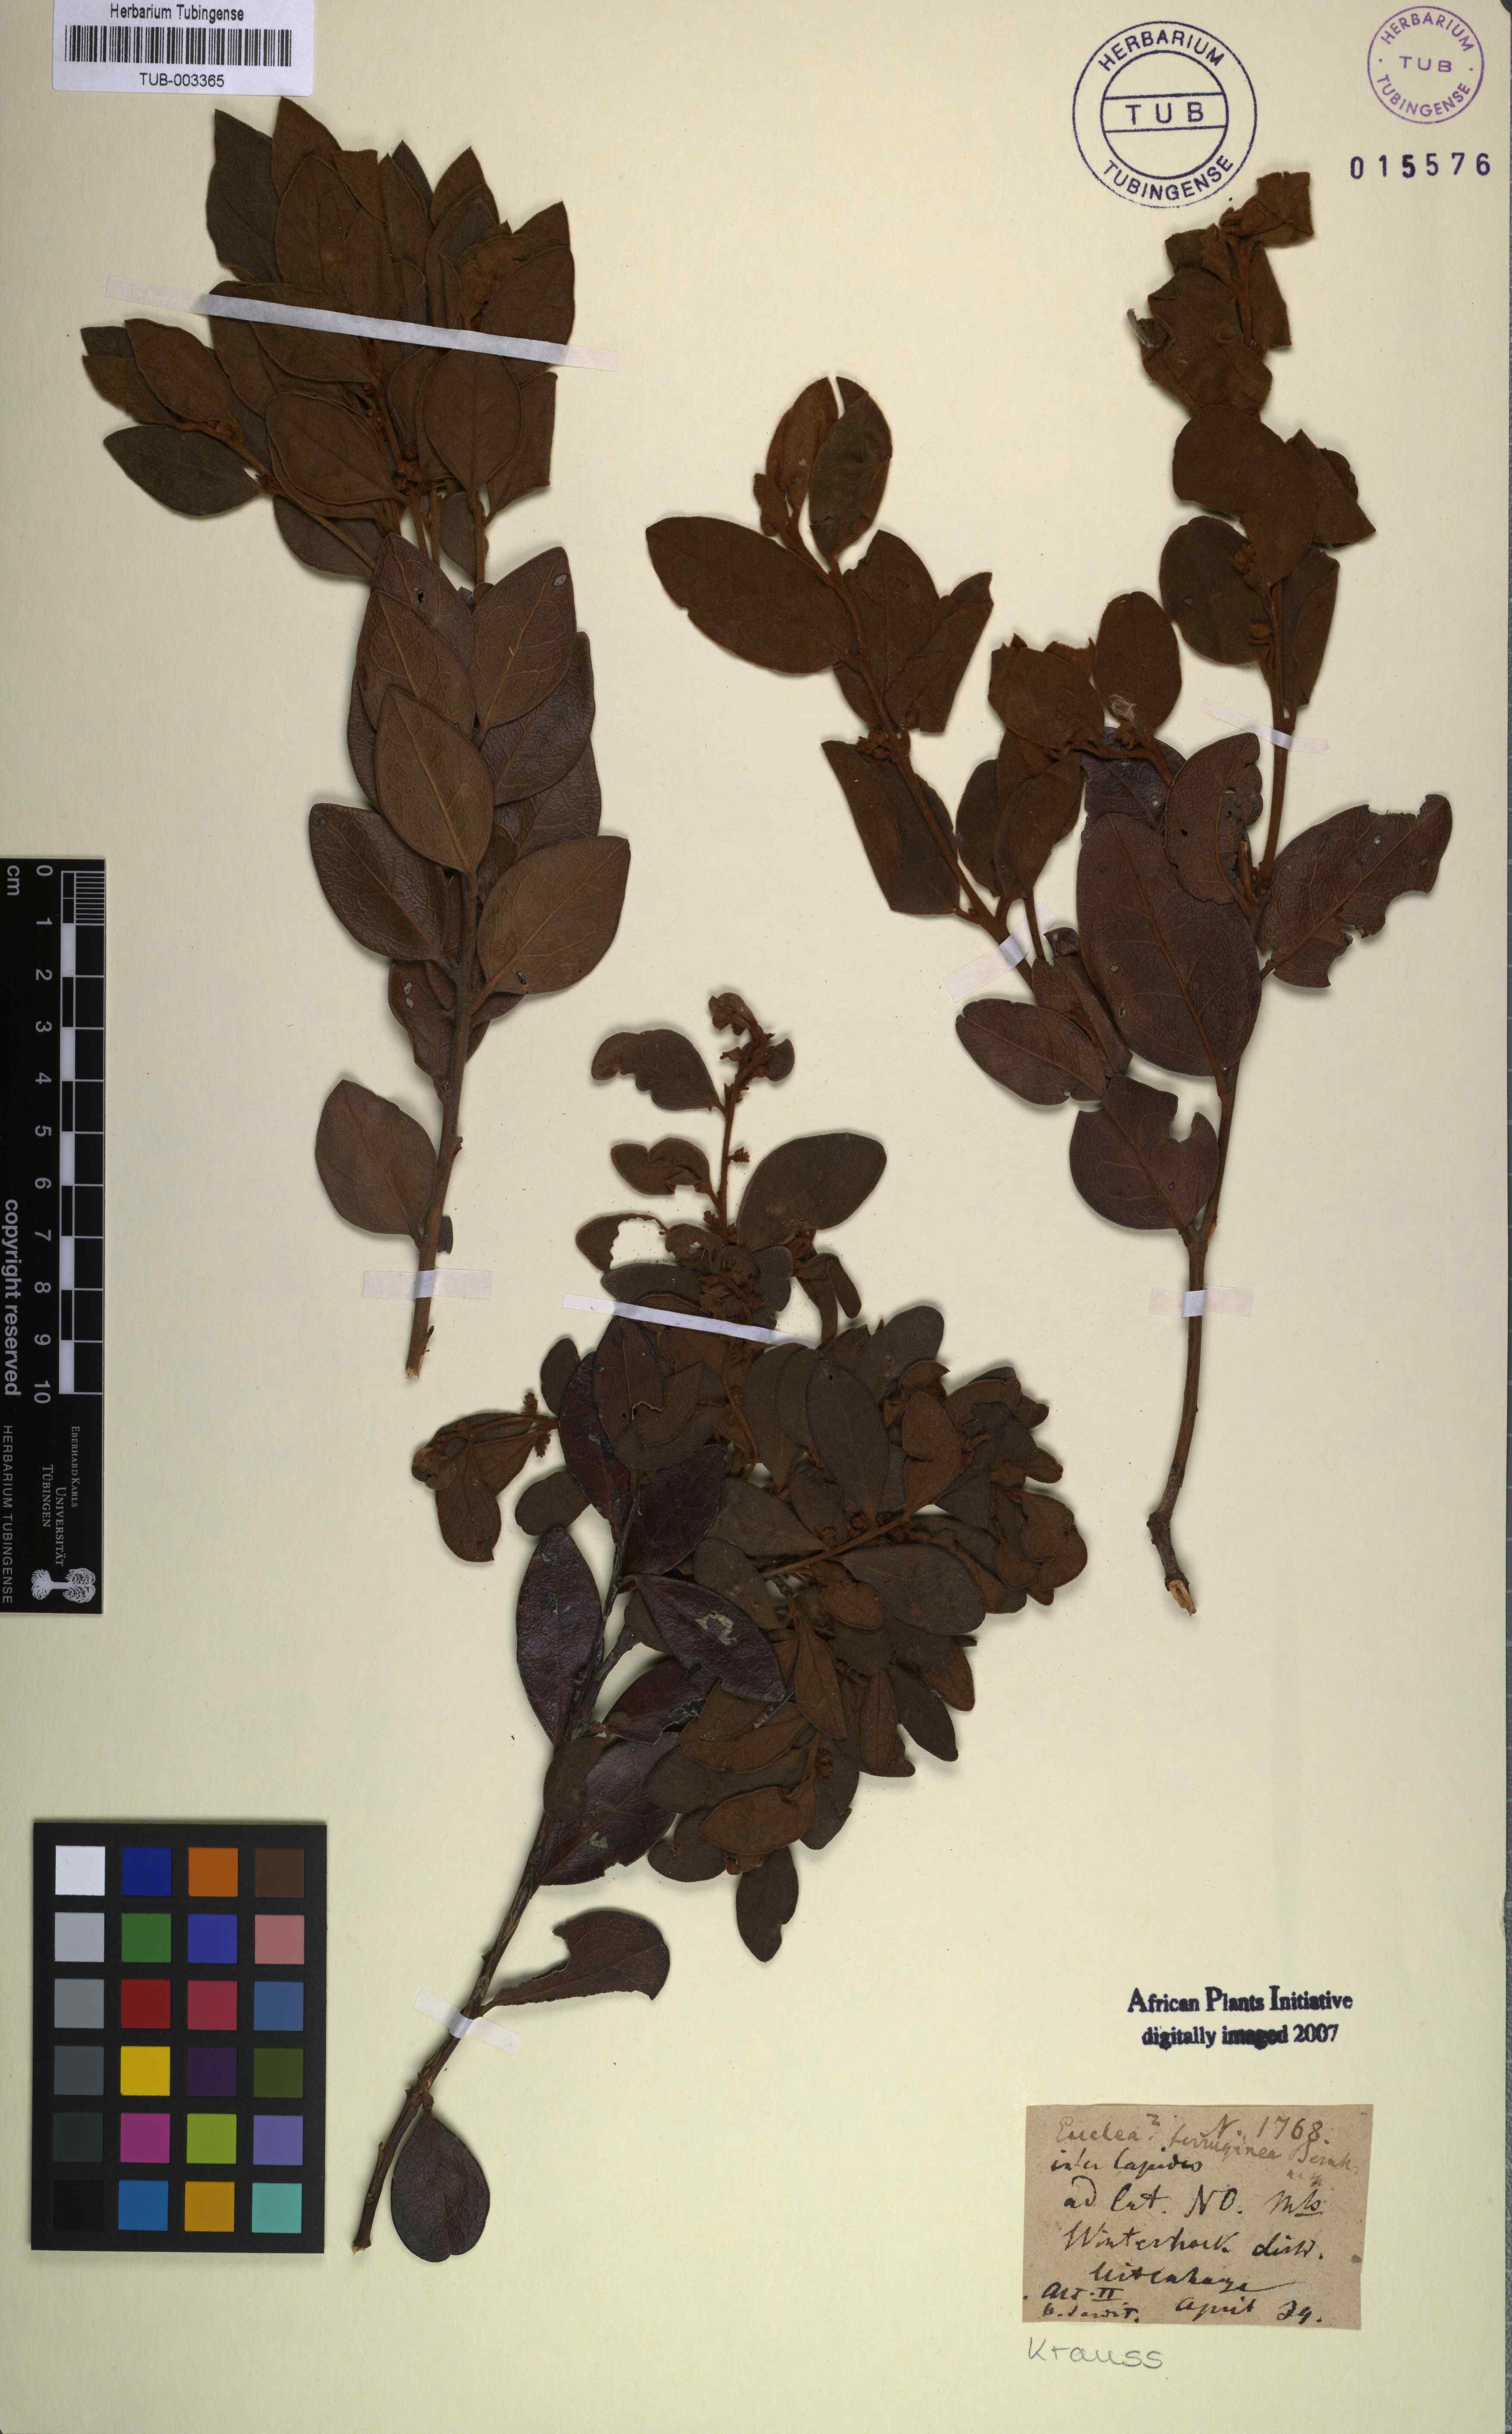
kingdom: Plantae
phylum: Tracheophyta
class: Magnoliopsida
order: Ericales
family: Ebenaceae
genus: Euclea
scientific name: Euclea polyandra
